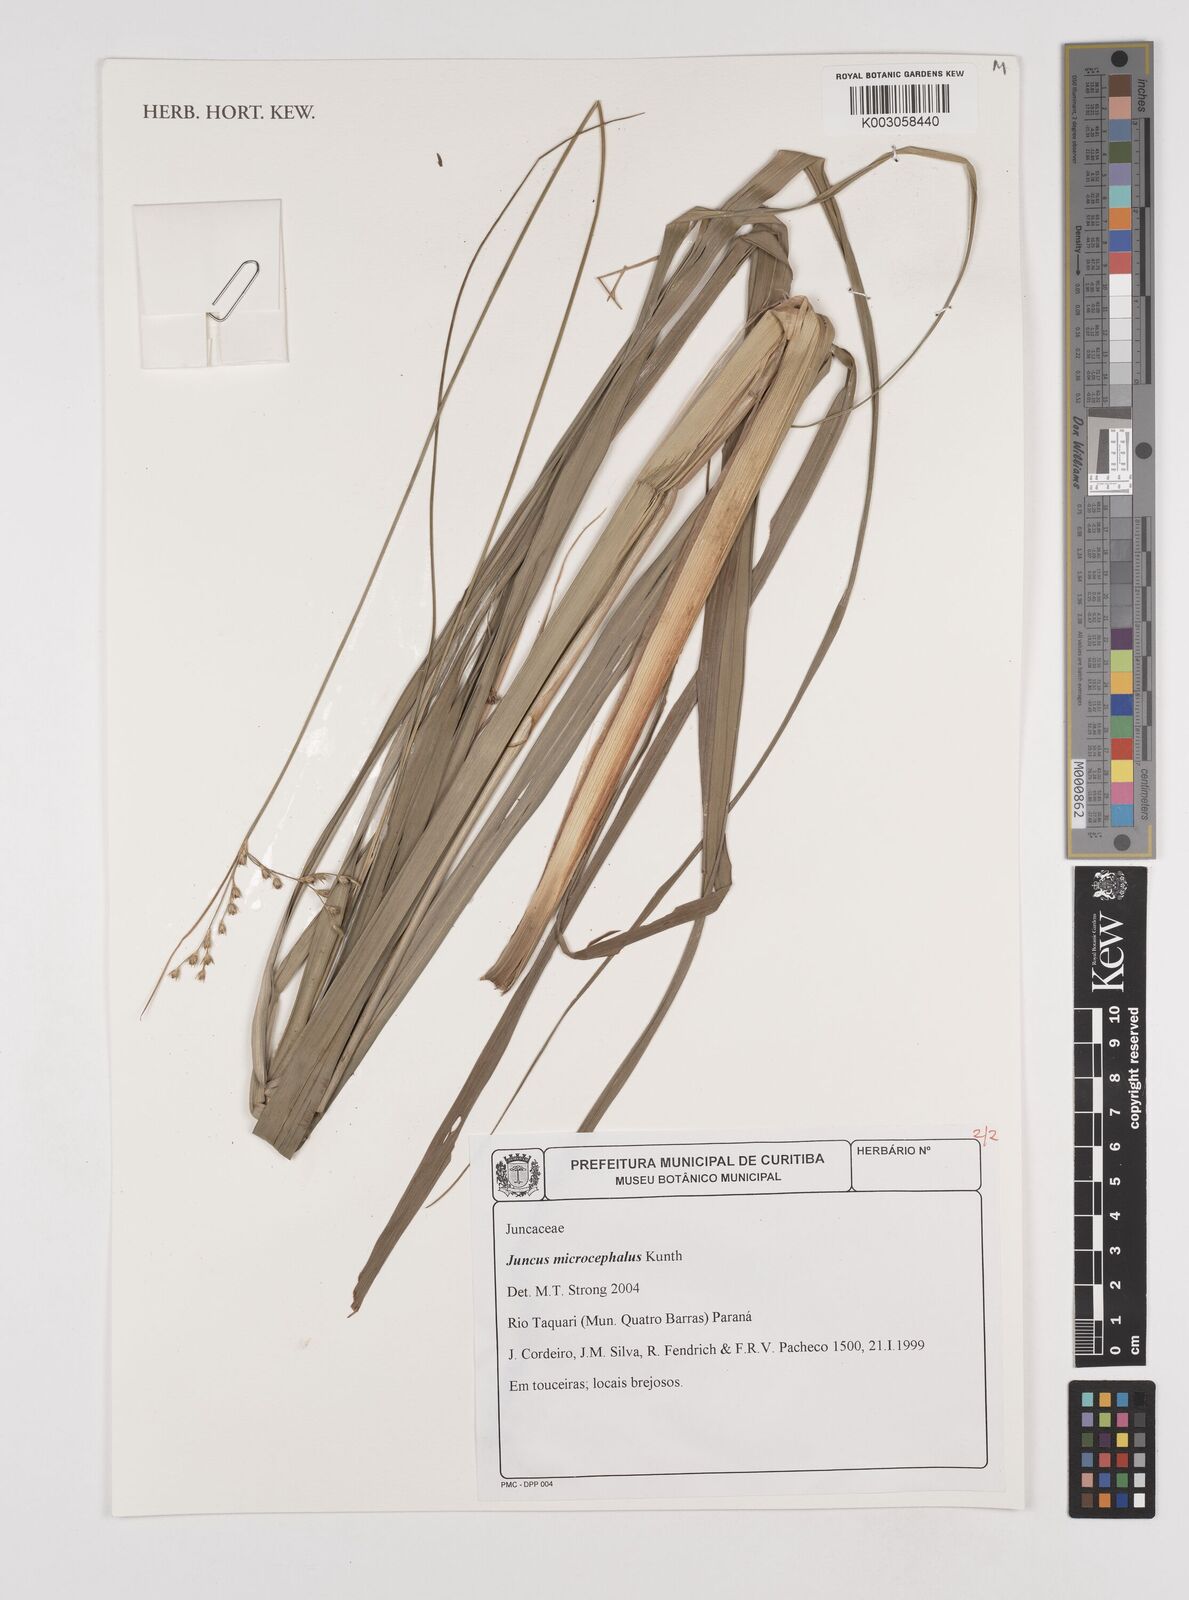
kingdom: Plantae
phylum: Tracheophyta
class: Liliopsida
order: Poales
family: Juncaceae
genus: Juncus
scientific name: Juncus microcephalus
